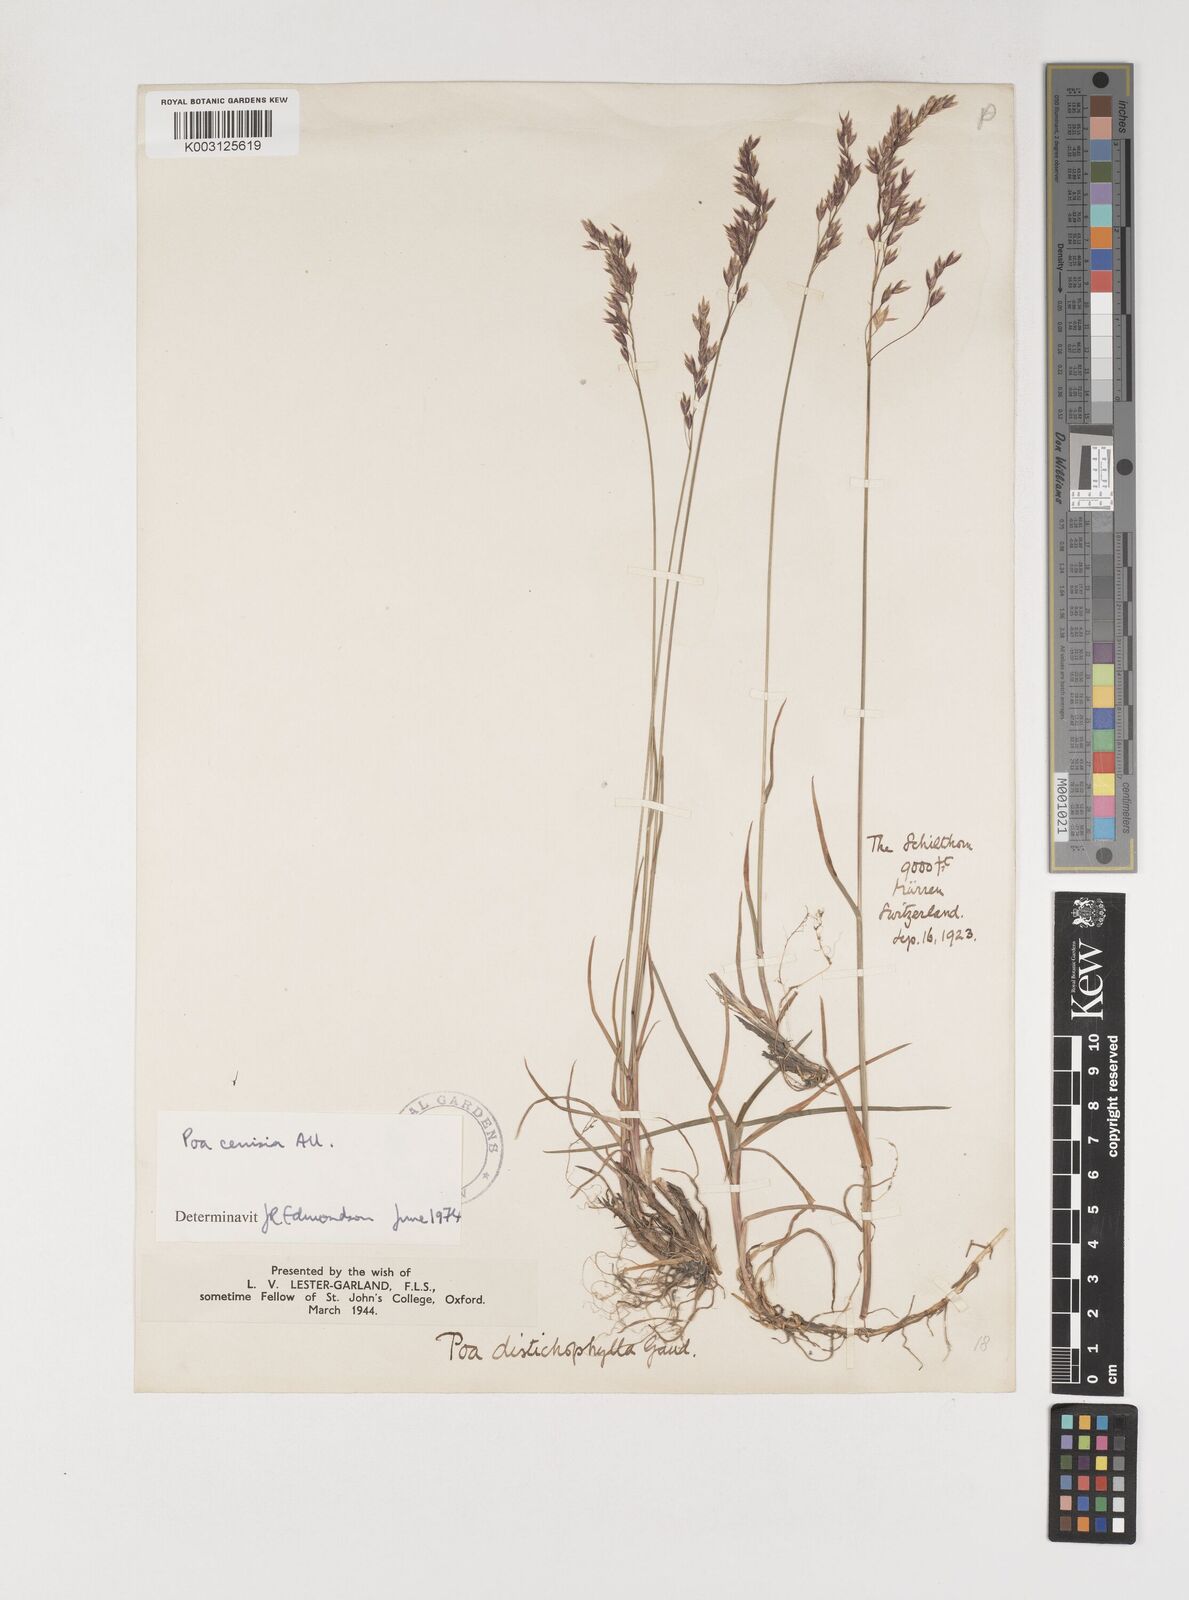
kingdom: Plantae
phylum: Tracheophyta
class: Liliopsida
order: Poales
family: Poaceae
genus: Poa
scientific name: Poa cenisia
